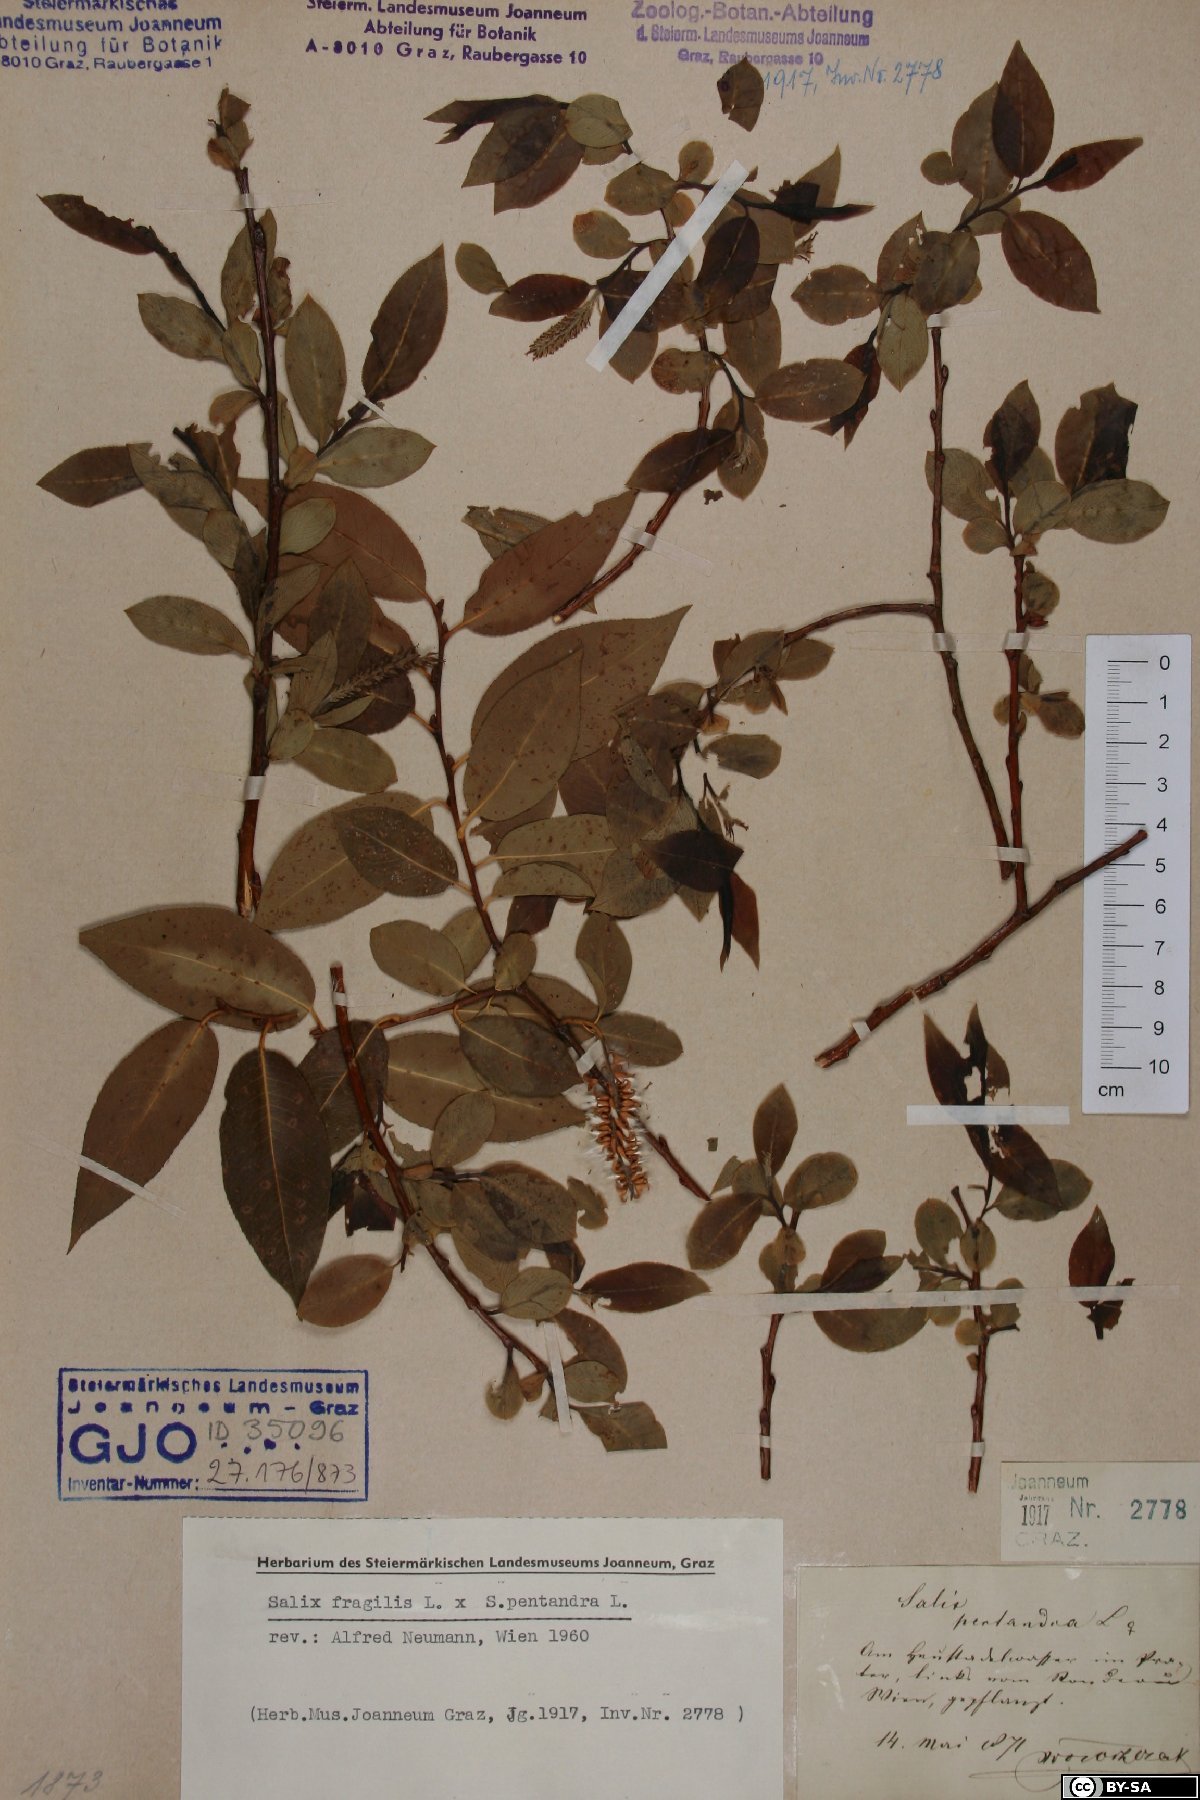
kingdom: Plantae
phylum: Tracheophyta
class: Magnoliopsida
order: Malpighiales
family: Salicaceae
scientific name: Salicaceae
